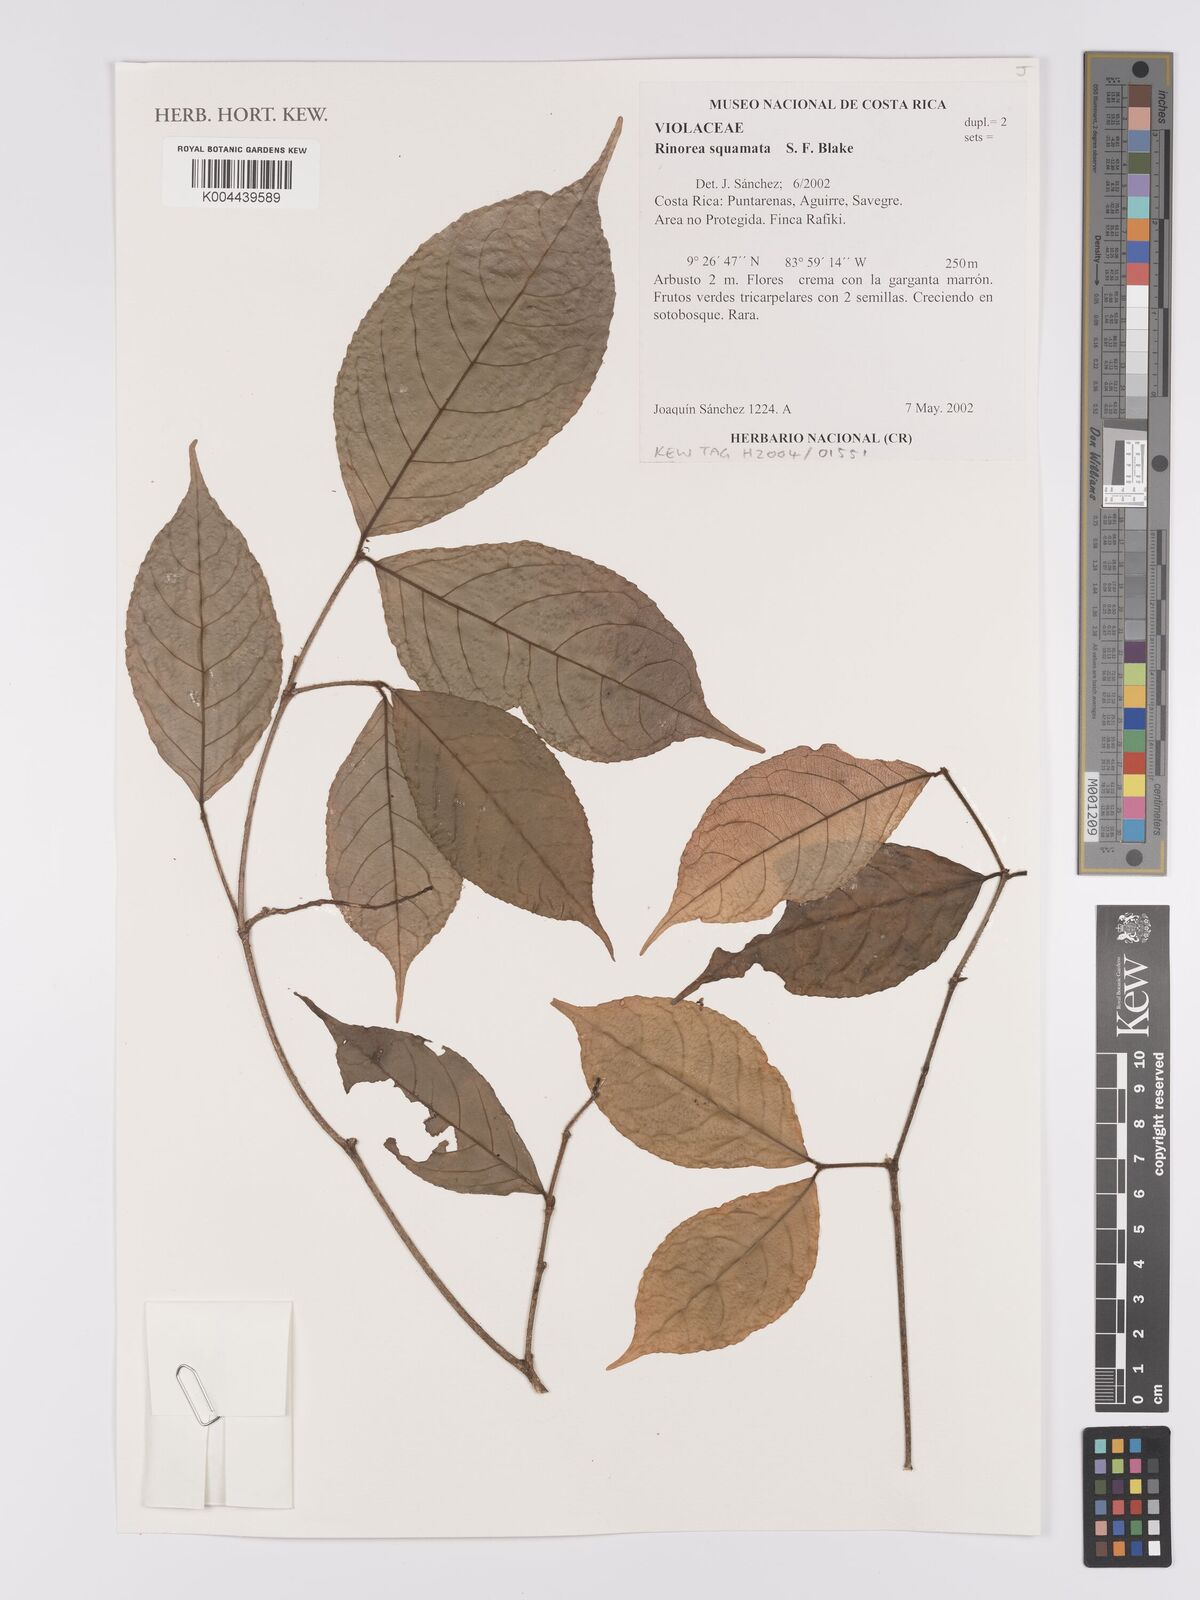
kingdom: Plantae
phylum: Tracheophyta
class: Magnoliopsida
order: Malpighiales
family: Violaceae
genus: Rinorea
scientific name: Rinorea squamata
